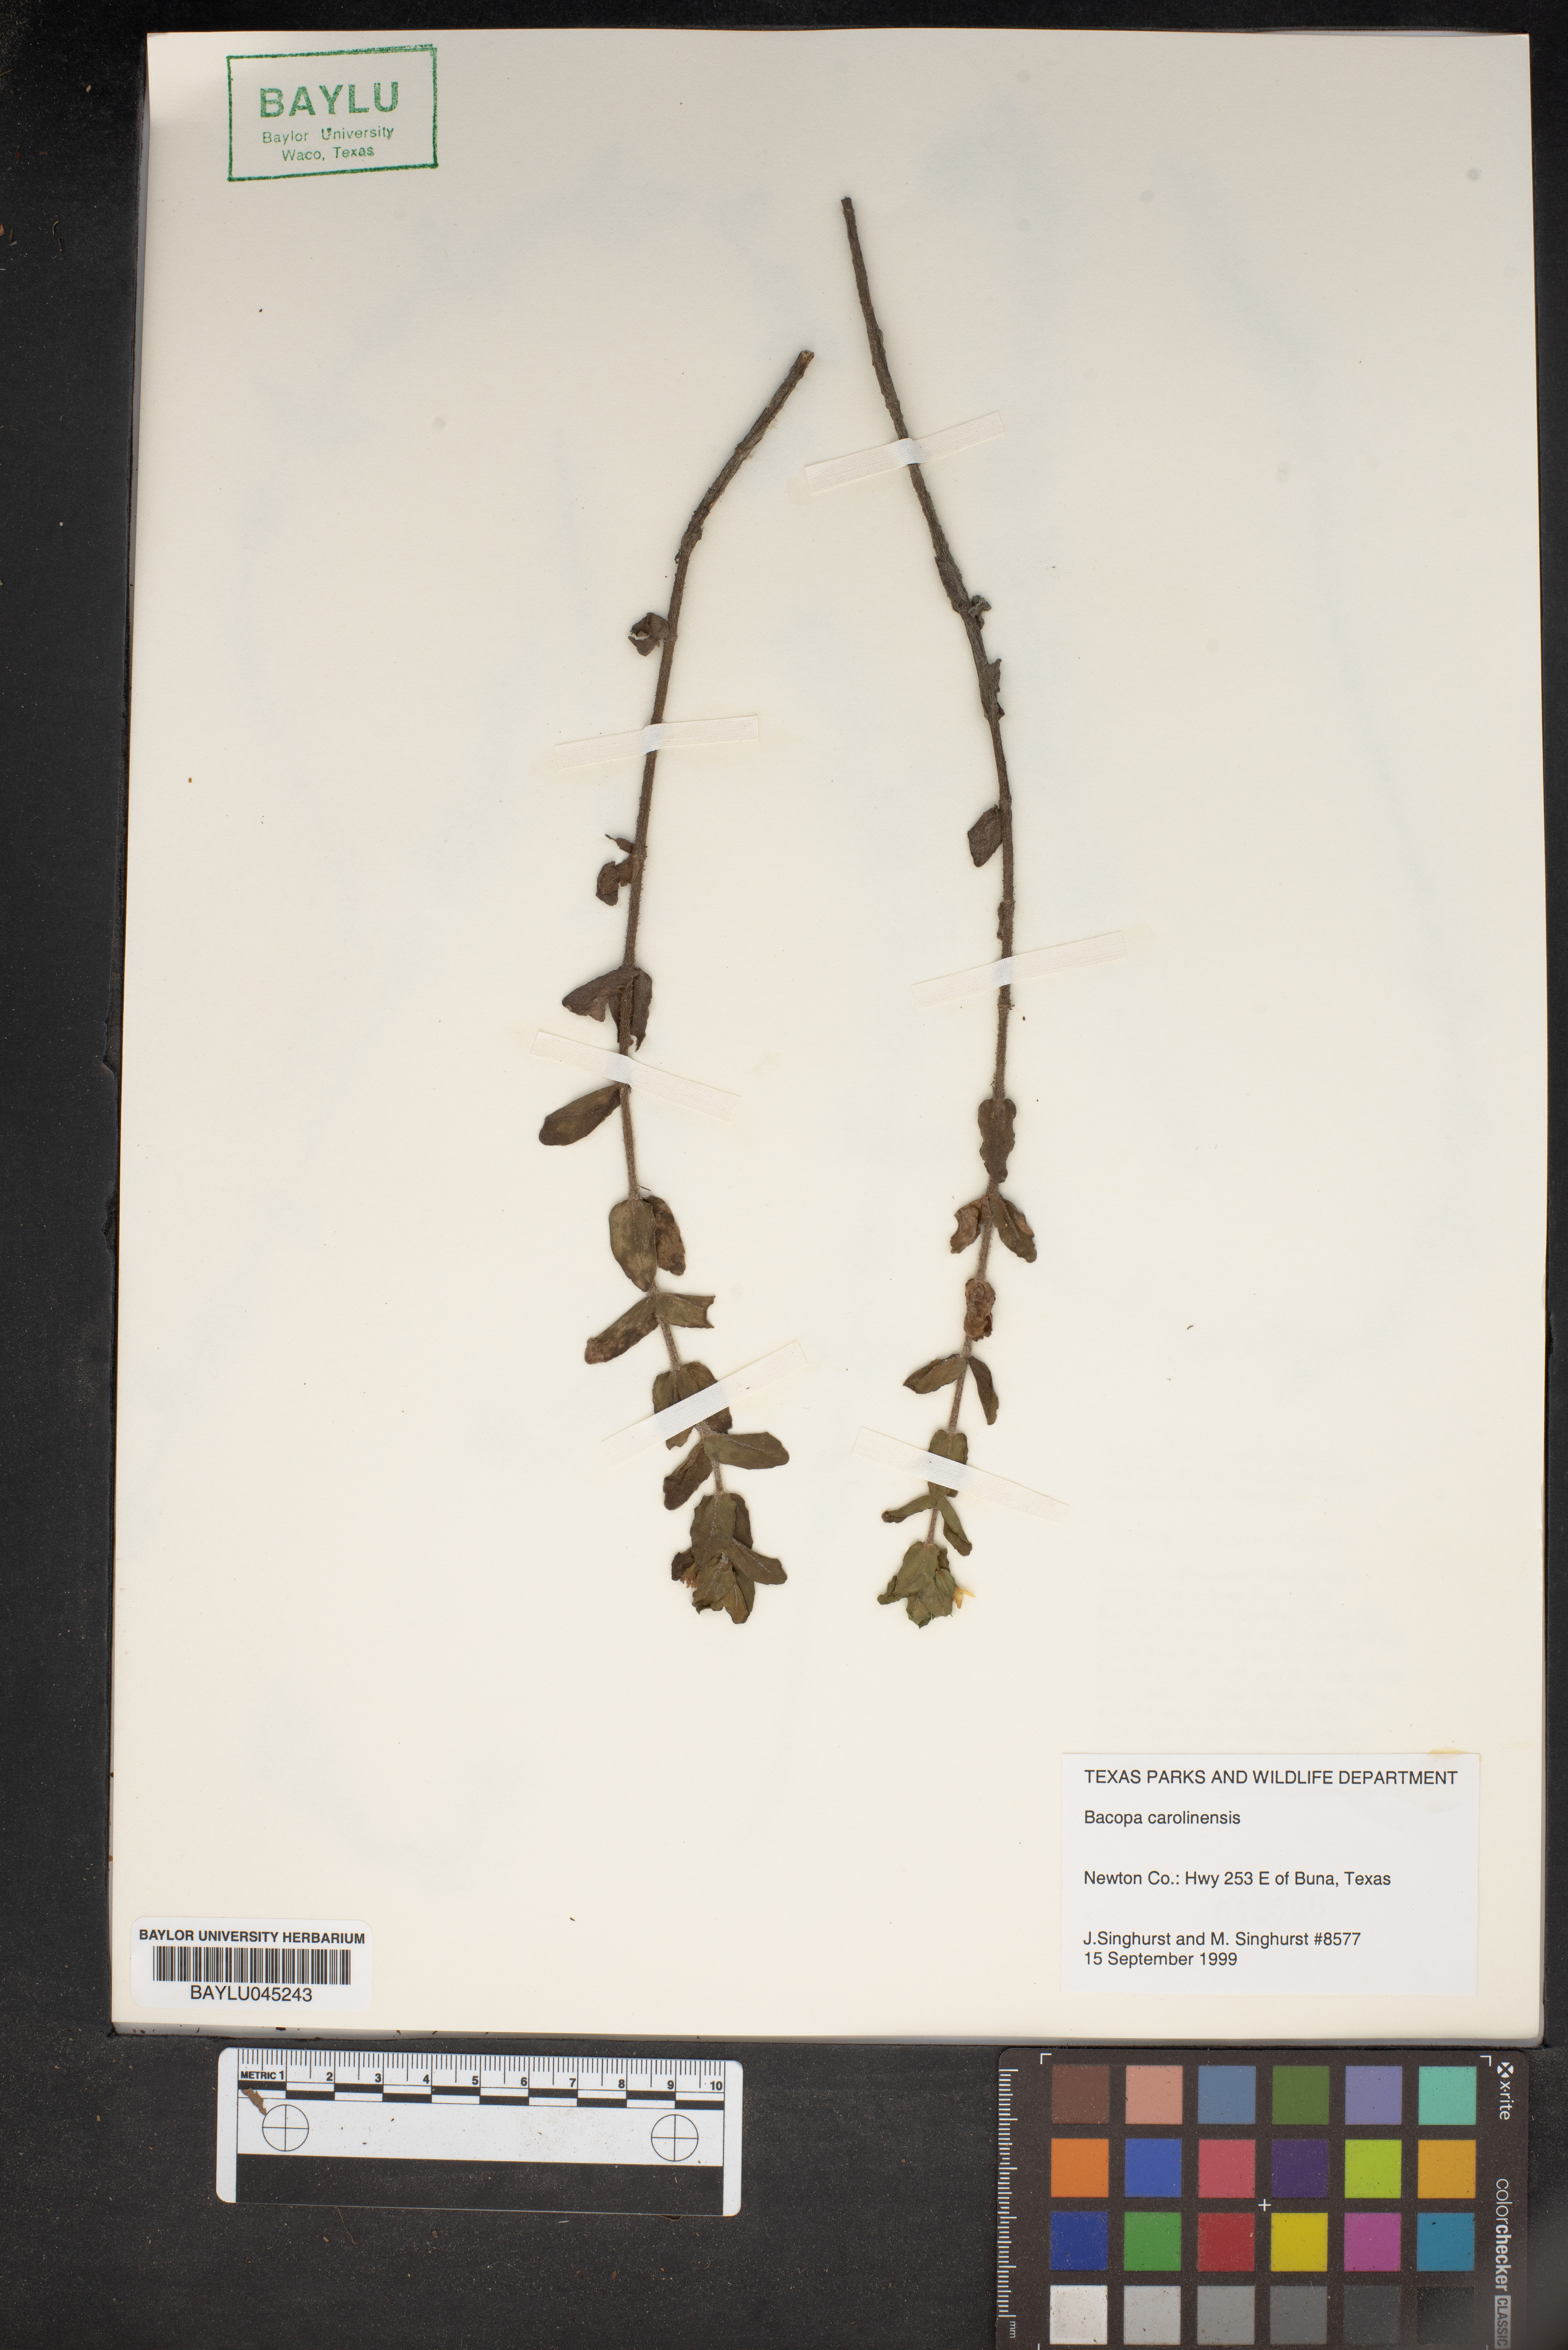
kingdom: Plantae
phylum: Tracheophyta
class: Magnoliopsida
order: Lamiales
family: Plantaginaceae
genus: Bacopa
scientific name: Bacopa caroliniana
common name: Lemon bacopa
